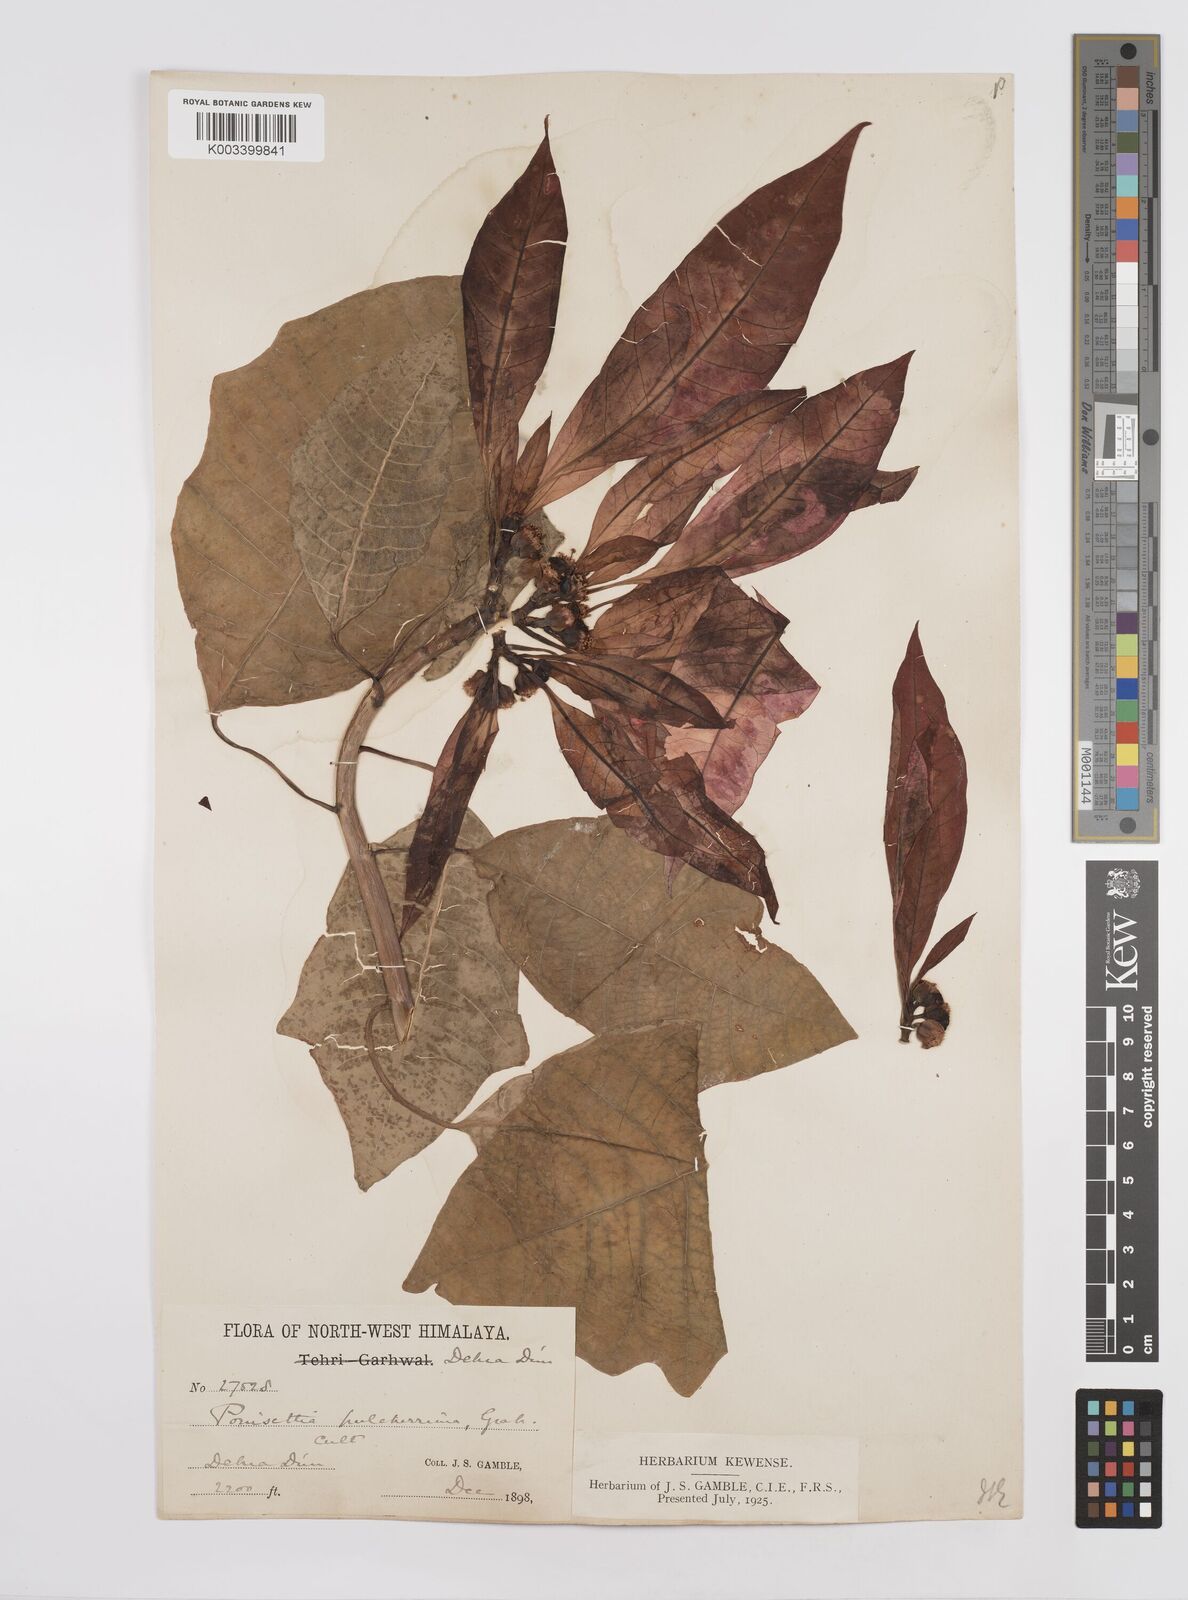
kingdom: Plantae
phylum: Tracheophyta
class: Magnoliopsida
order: Malpighiales
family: Euphorbiaceae
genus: Euphorbia
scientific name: Euphorbia pulcherrima
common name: Christmas-flower
